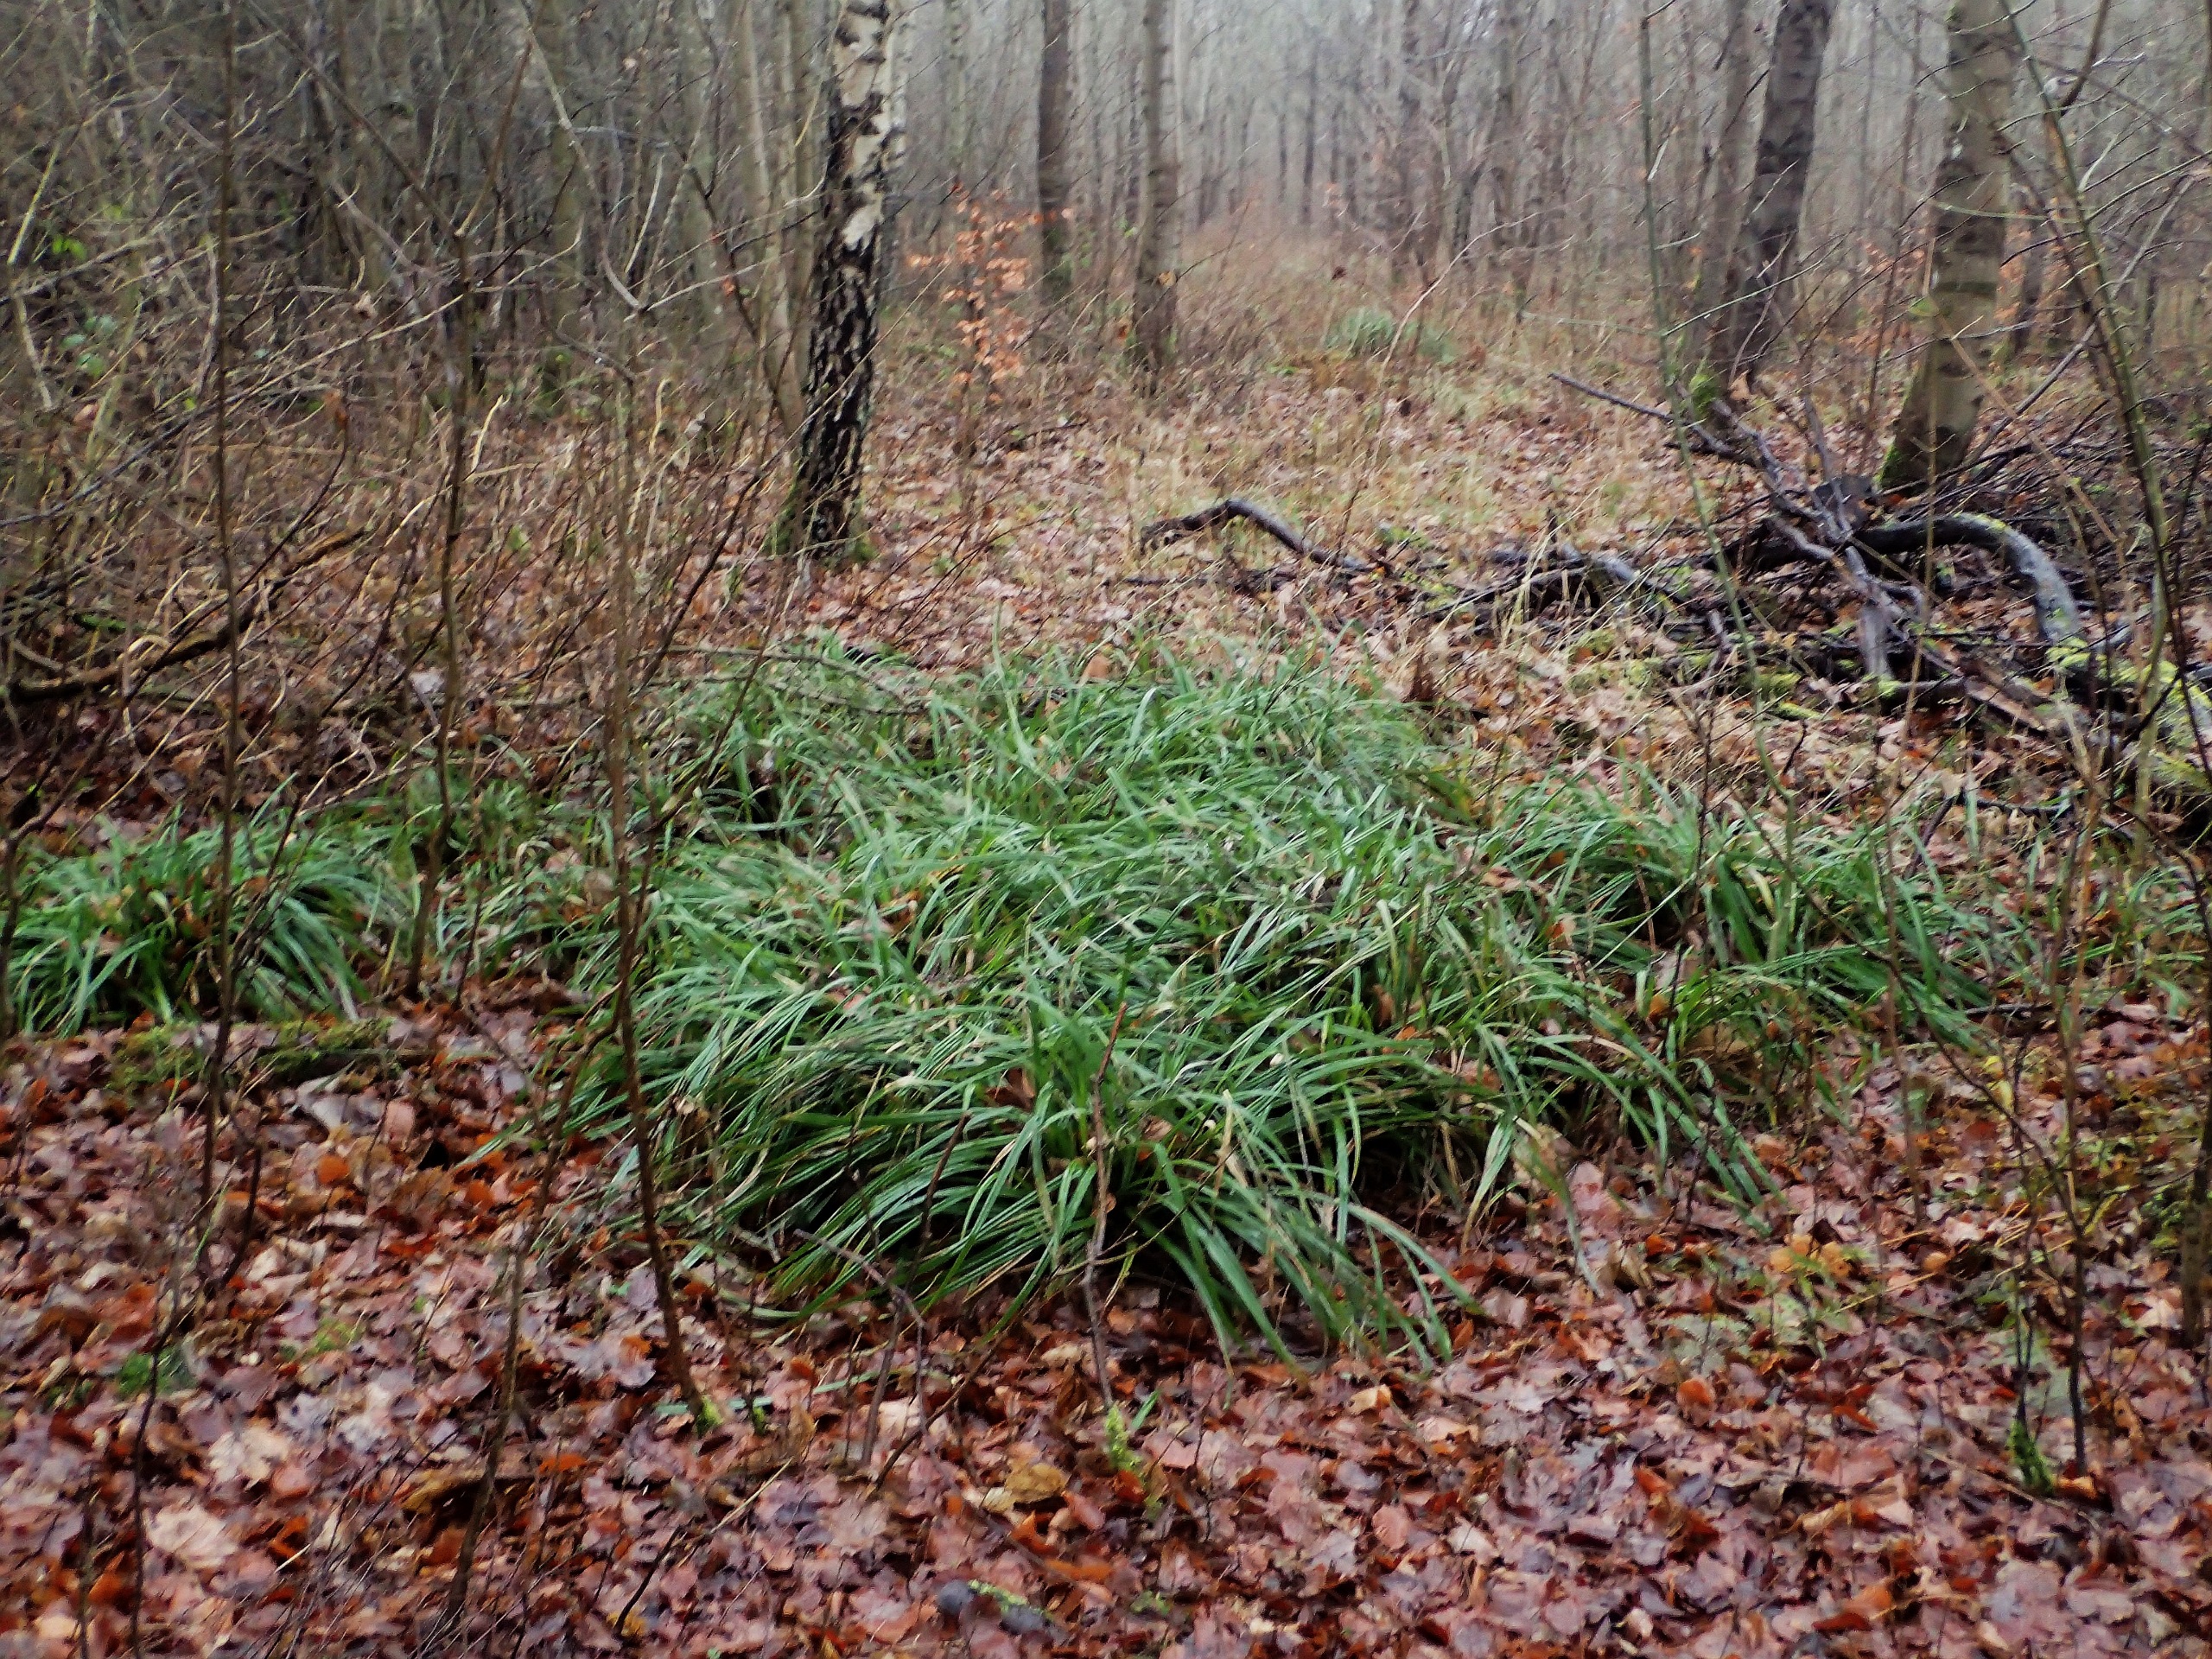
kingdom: Plantae
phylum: Tracheophyta
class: Liliopsida
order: Poales
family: Cyperaceae
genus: Carex
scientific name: Carex pendula
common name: Kæmpe-star
